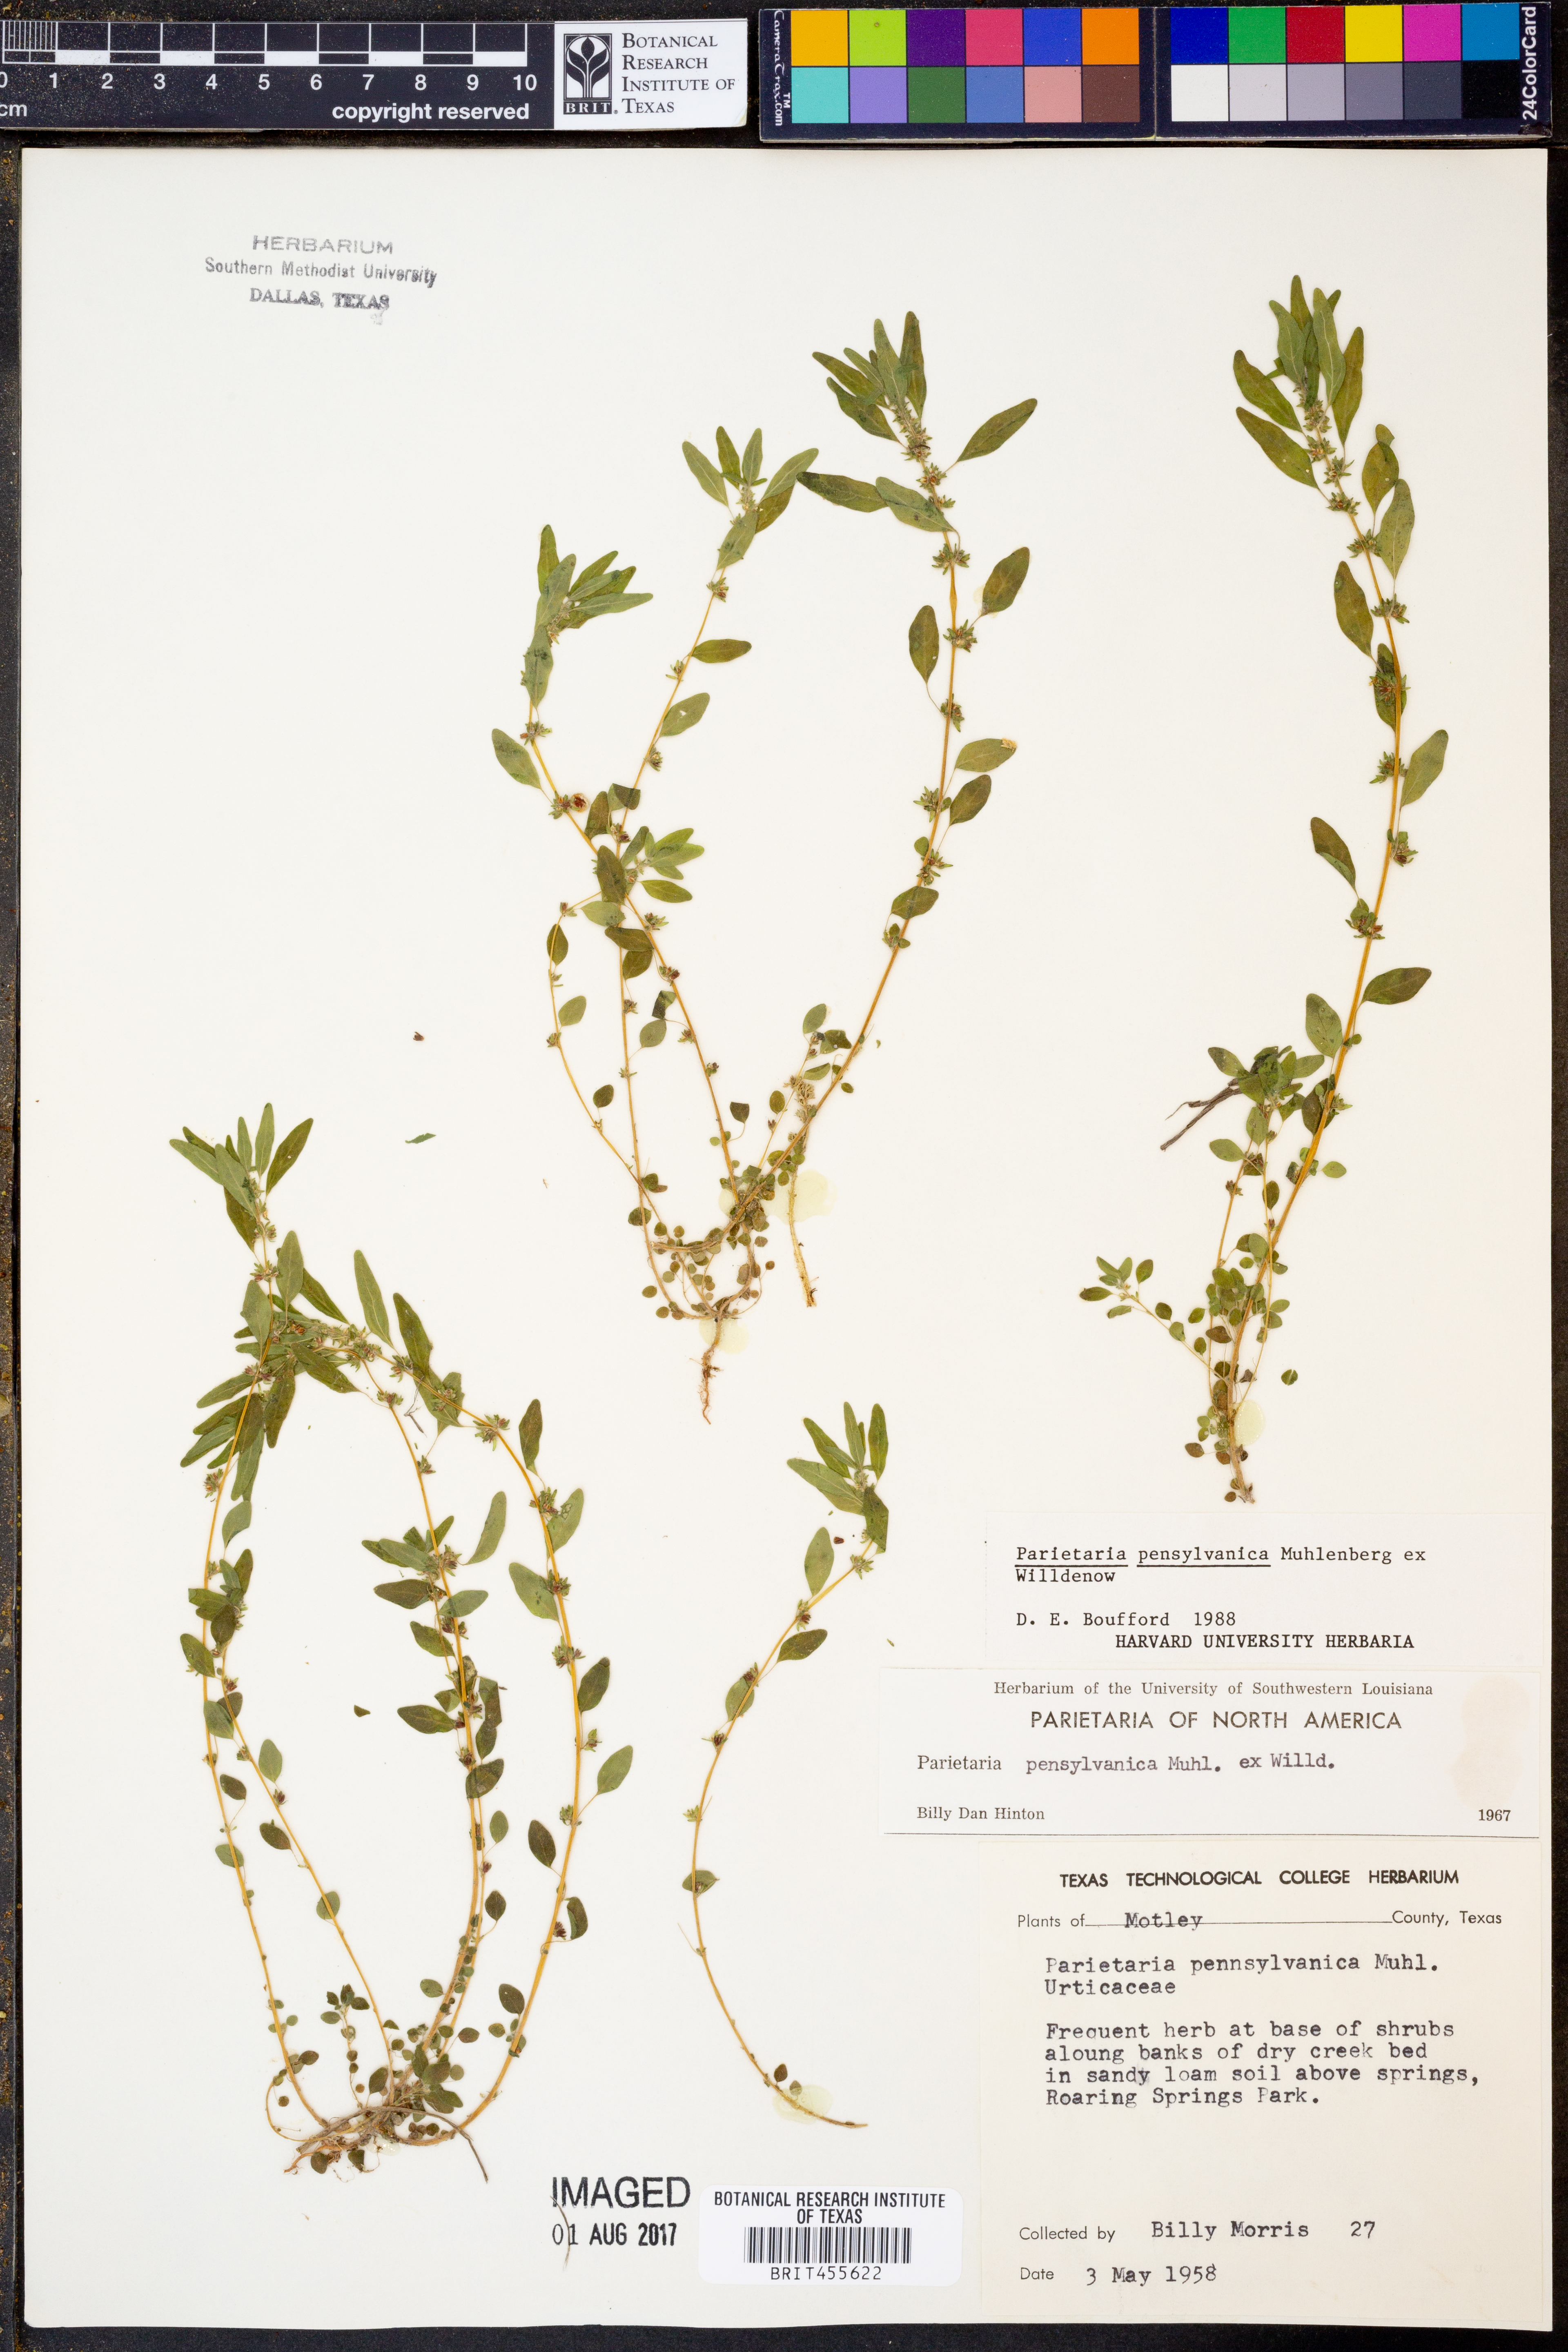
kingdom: Plantae
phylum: Tracheophyta
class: Magnoliopsida
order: Rosales
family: Urticaceae
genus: Parietaria
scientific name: Parietaria pensylvanica
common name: Pennsylvania pellitory
